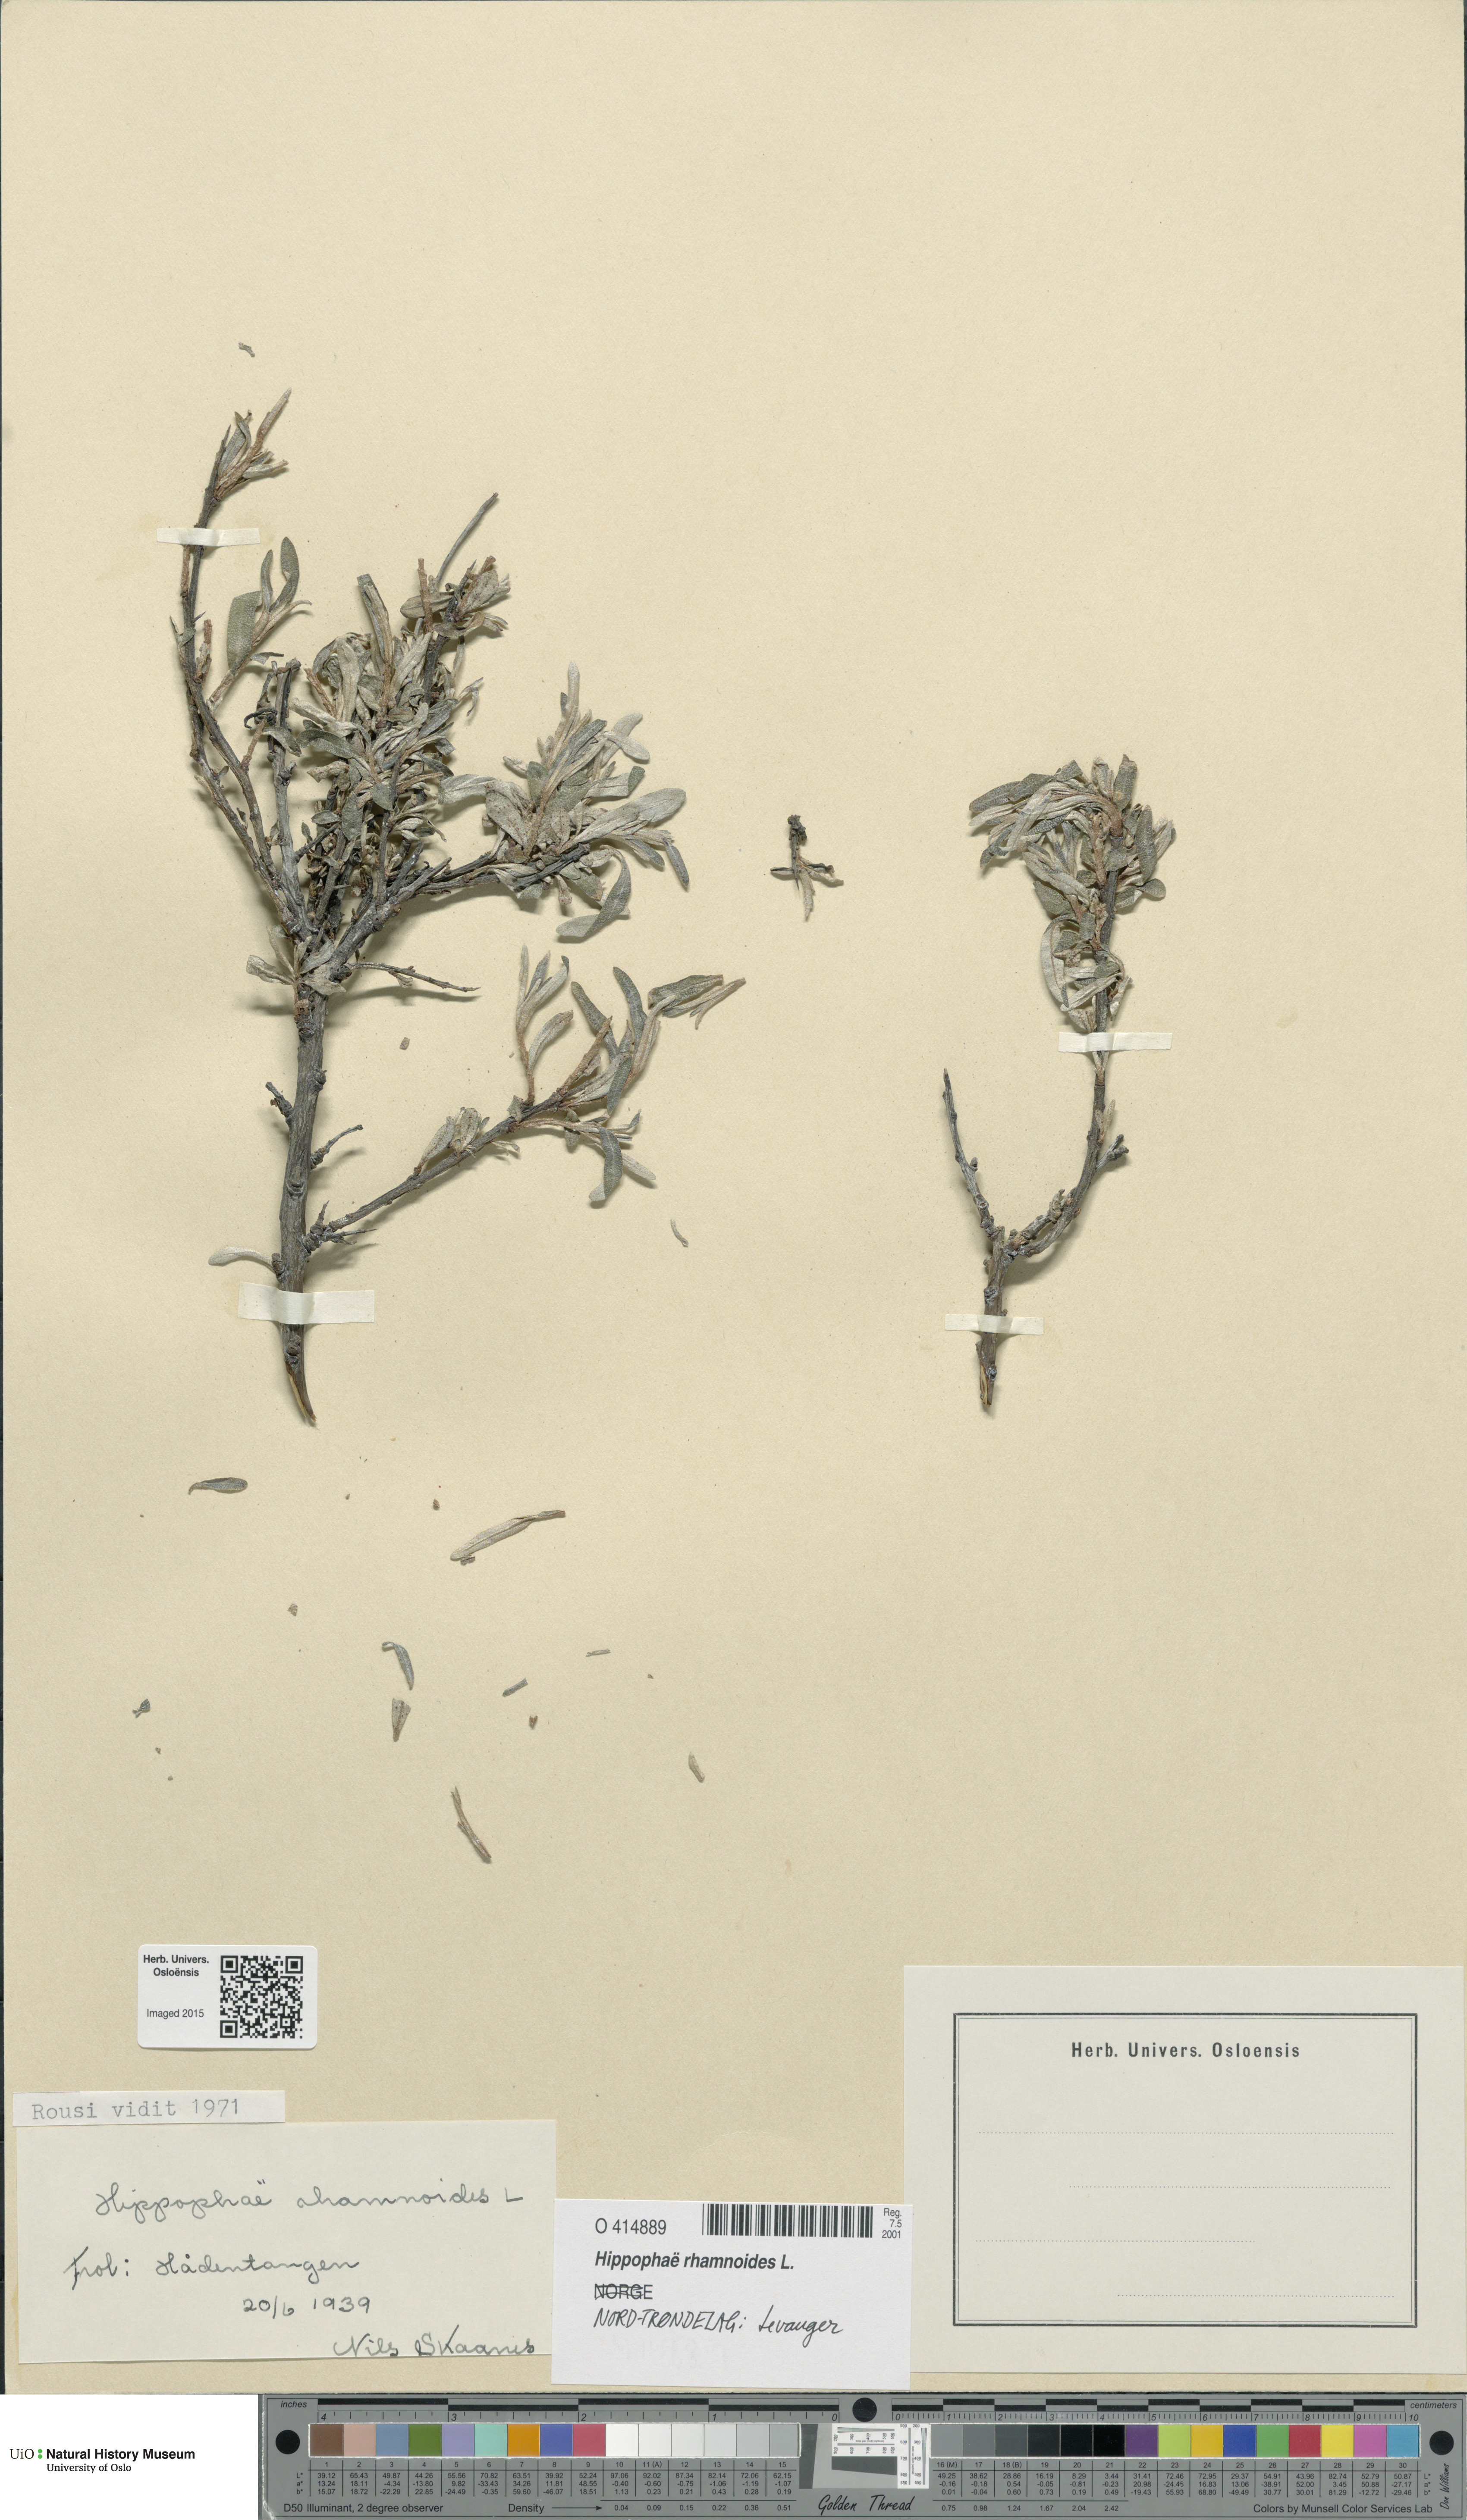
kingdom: Plantae
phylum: Tracheophyta
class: Magnoliopsida
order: Rosales
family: Elaeagnaceae
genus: Hippophae
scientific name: Hippophae rhamnoides
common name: Sea-buckthorn
